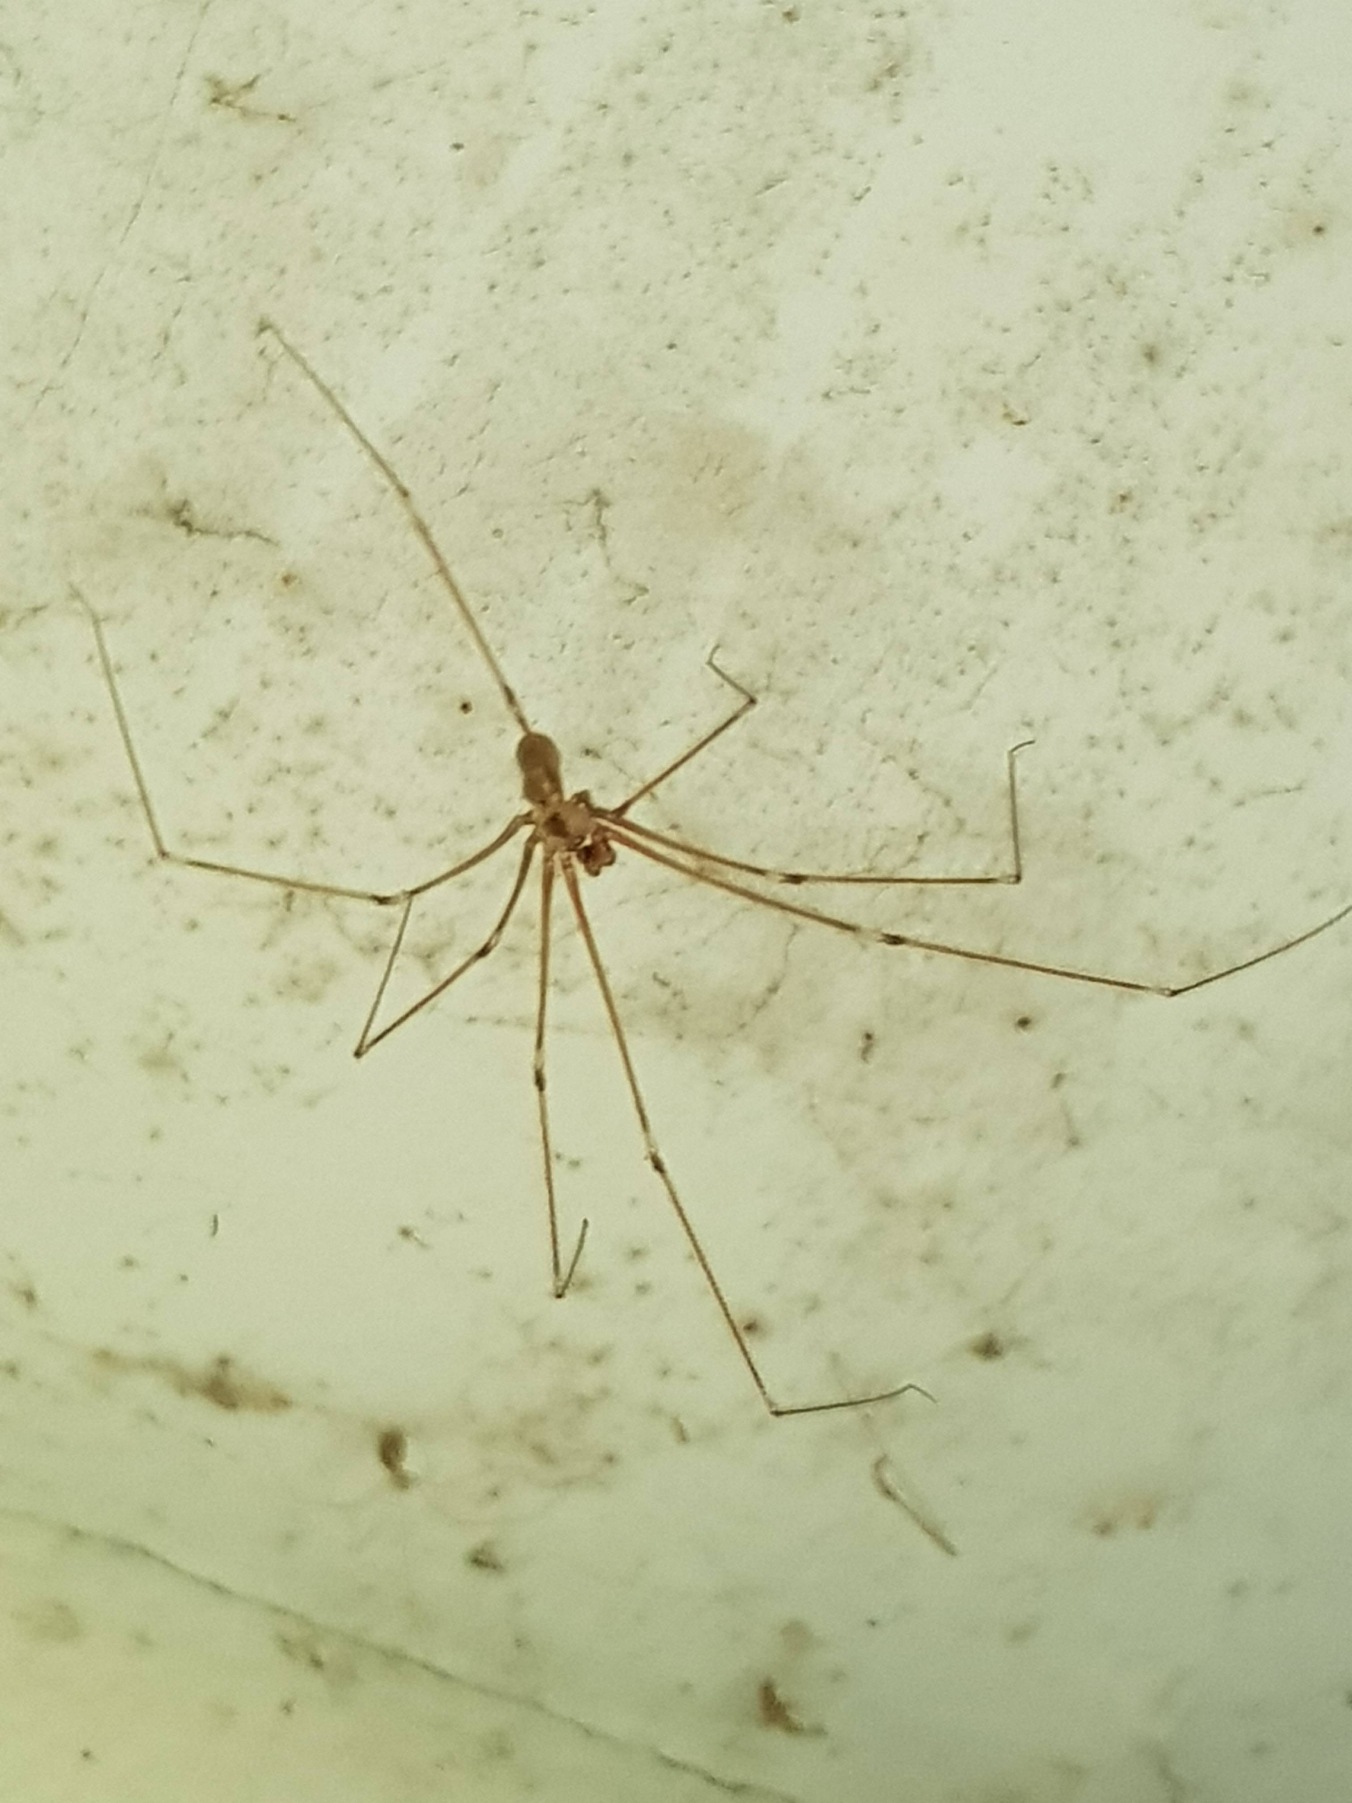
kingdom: Animalia
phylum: Arthropoda
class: Arachnida
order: Araneae
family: Pholcidae
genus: Pholcus
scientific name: Pholcus phalangioides
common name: Mejeredderkop
